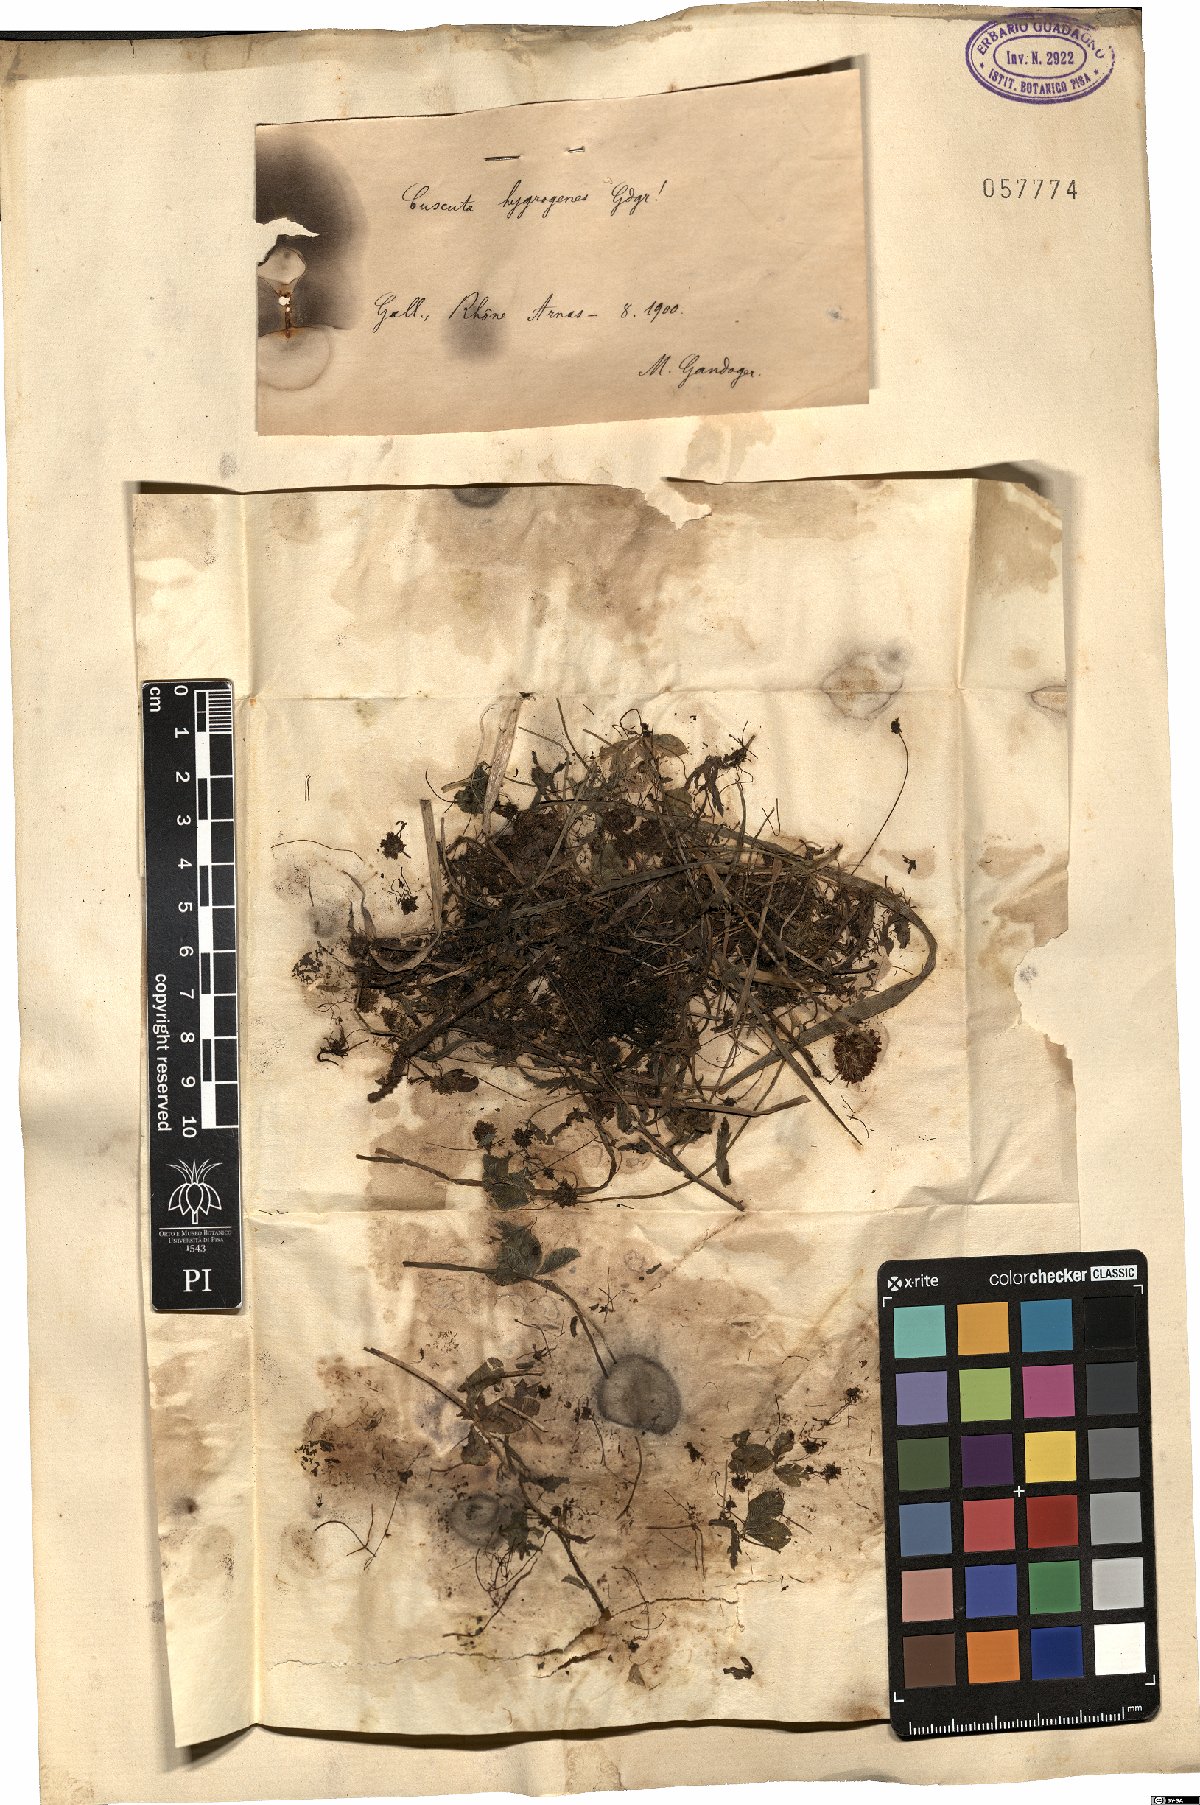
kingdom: Plantae
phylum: Tracheophyta
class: Magnoliopsida
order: Solanales
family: Convolvulaceae
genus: Cuscuta
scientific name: Cuscuta epithymum
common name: Clover dodder
